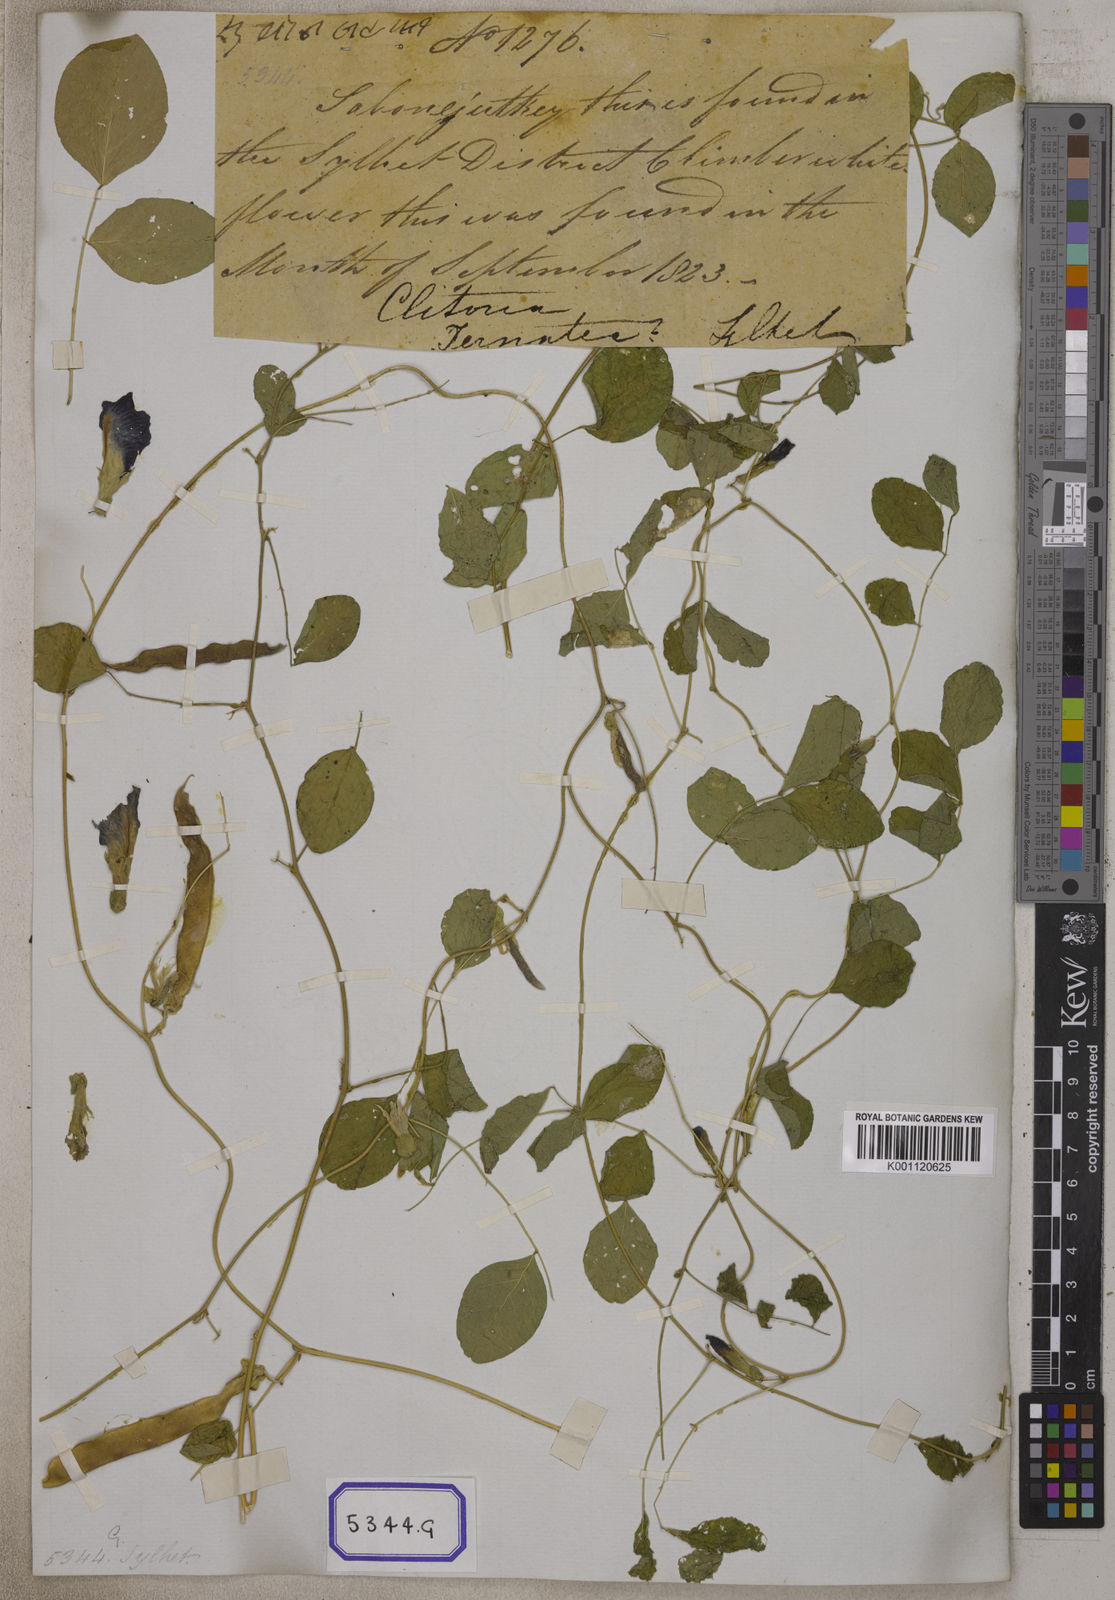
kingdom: Plantae
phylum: Tracheophyta
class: Magnoliopsida
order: Fabales
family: Fabaceae
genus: Clitoria
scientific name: Clitoria ternatea
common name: Asian pigeonwings
